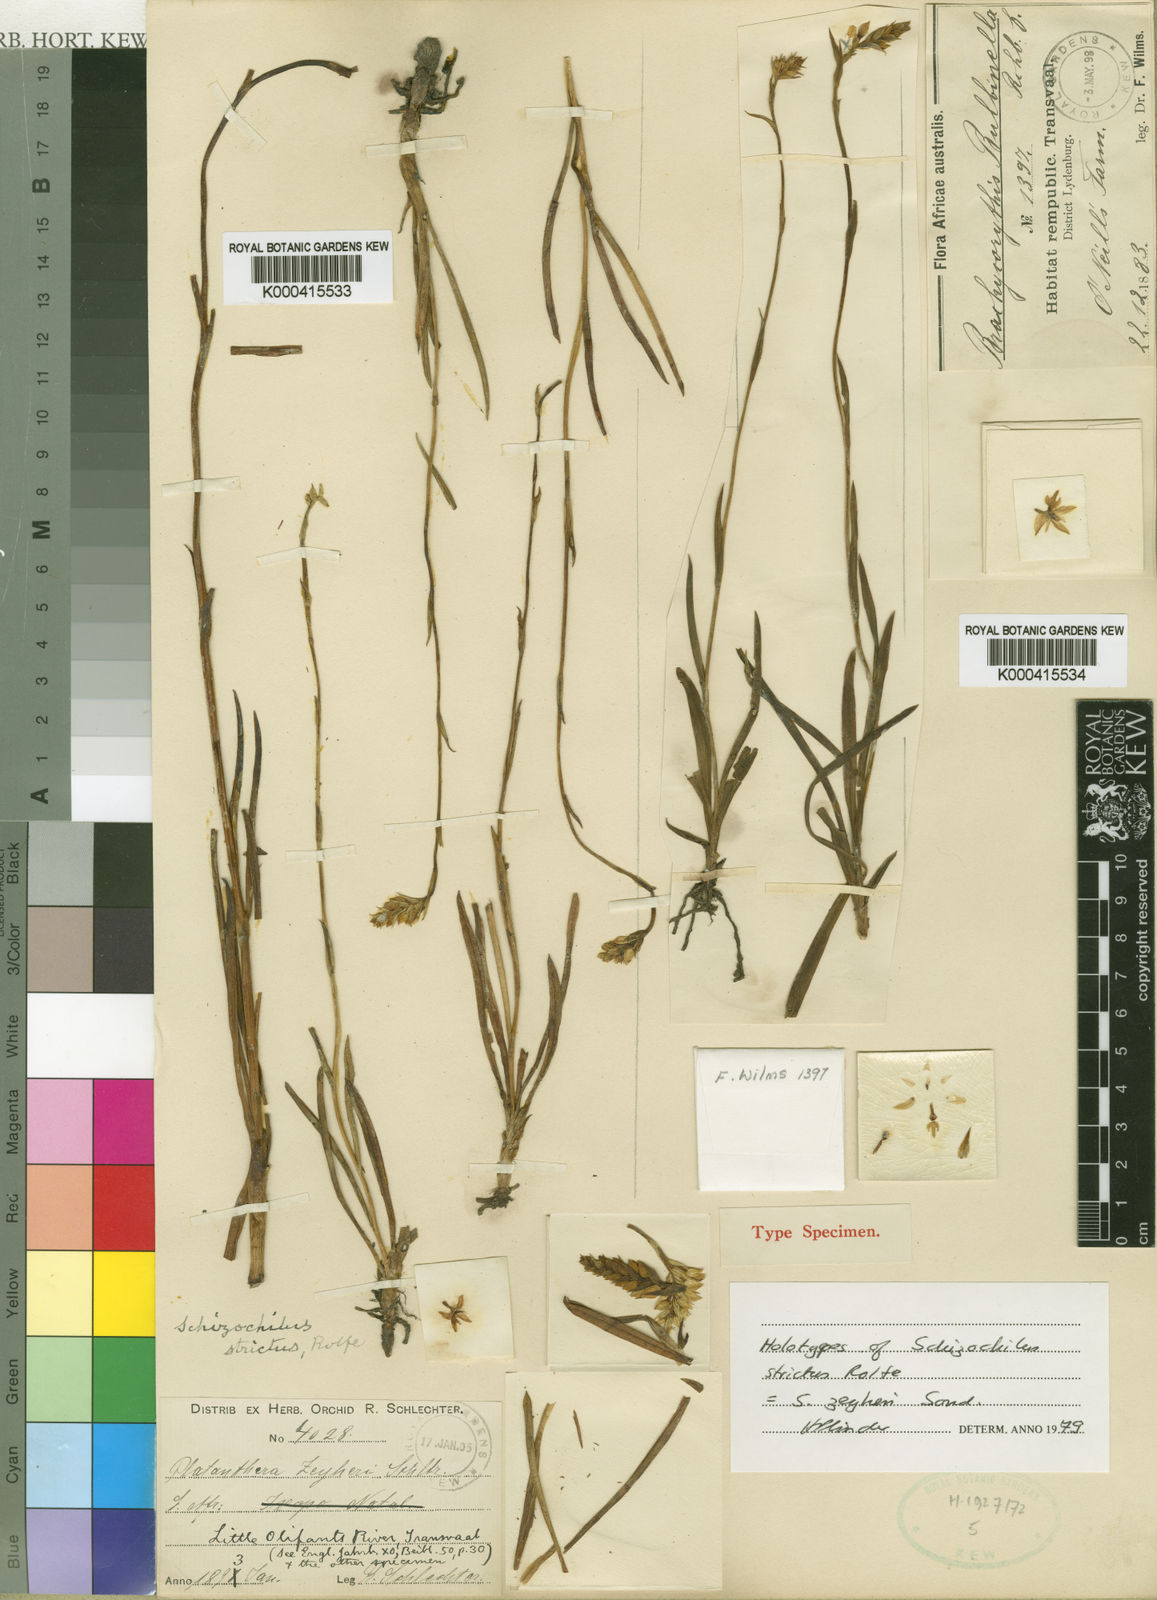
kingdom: Plantae
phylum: Tracheophyta
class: Liliopsida
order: Asparagales
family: Orchidaceae
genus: Schizochilus
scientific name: Schizochilus zeyheri
